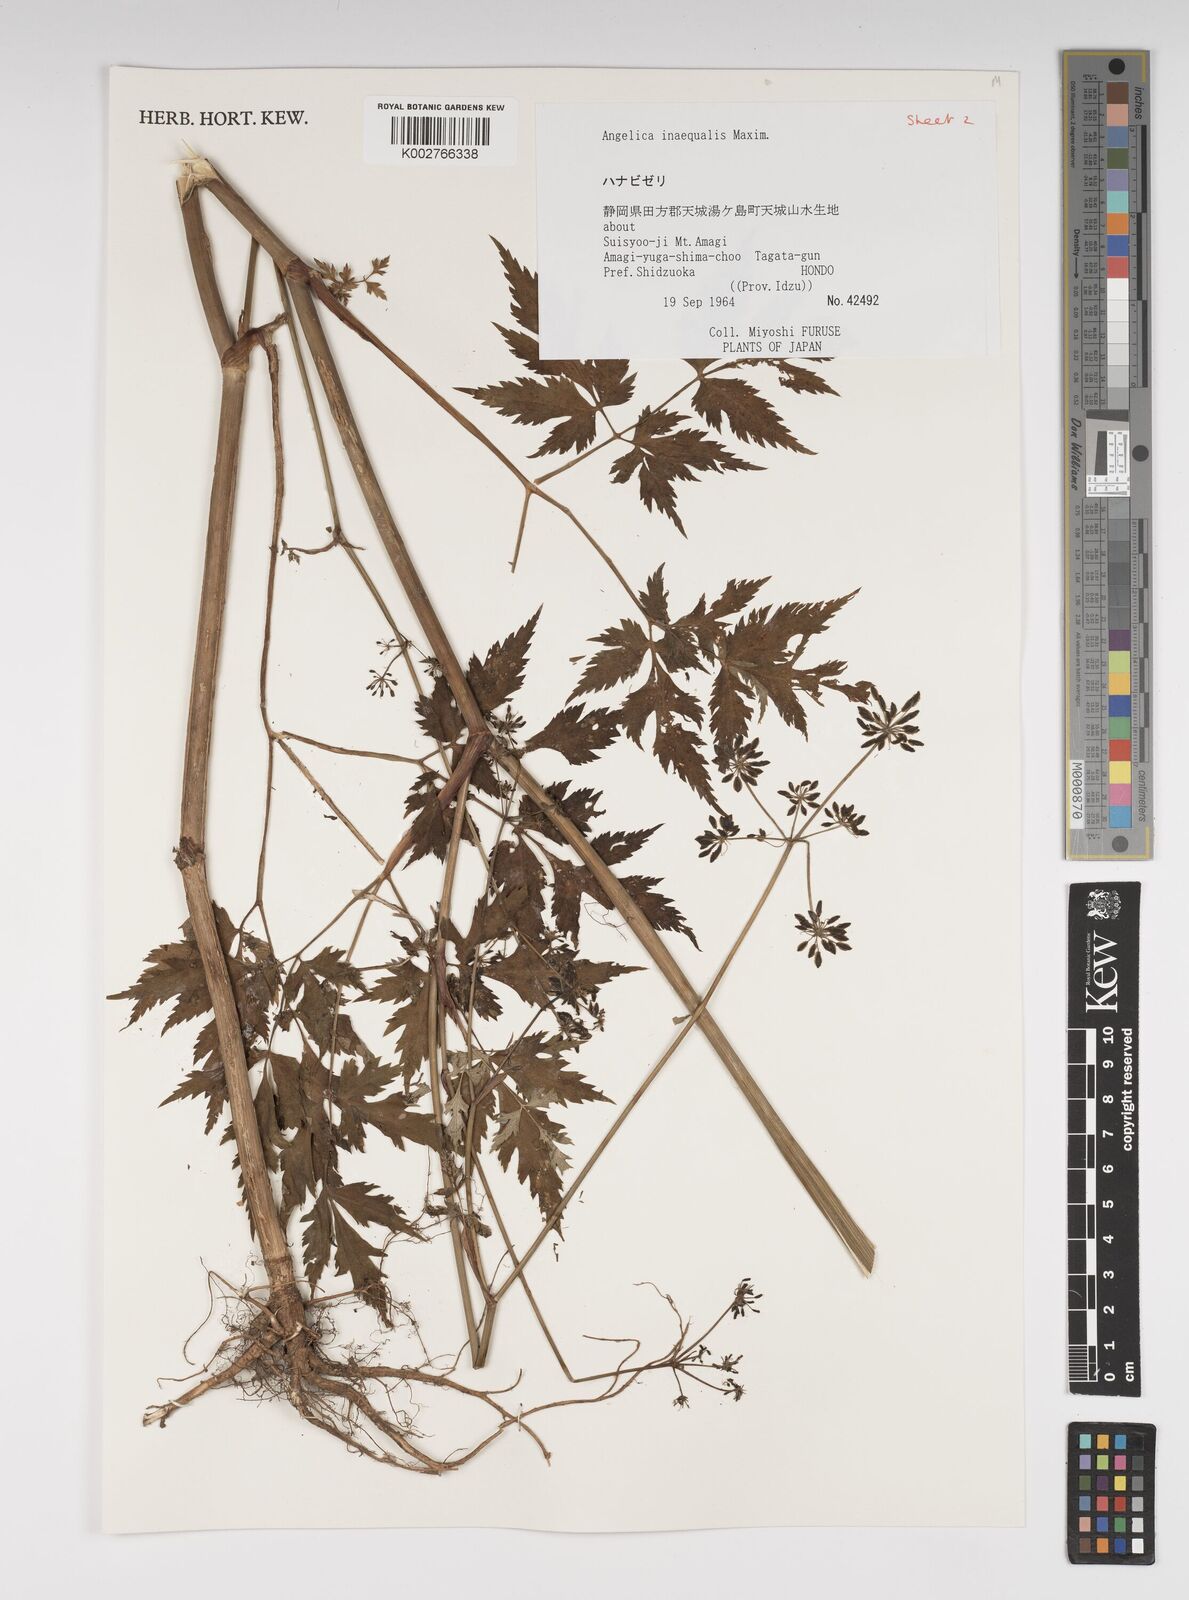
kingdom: Plantae
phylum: Tracheophyta
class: Magnoliopsida
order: Apiales
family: Apiaceae
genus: Angelica
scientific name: Angelica inaequalis
